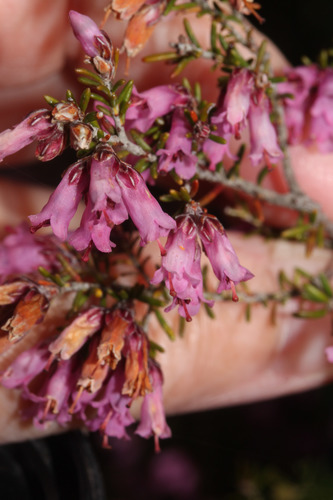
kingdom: Plantae
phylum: Tracheophyta
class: Magnoliopsida
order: Ericales
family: Ericaceae
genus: Erica
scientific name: Erica australis
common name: Spanish heath
